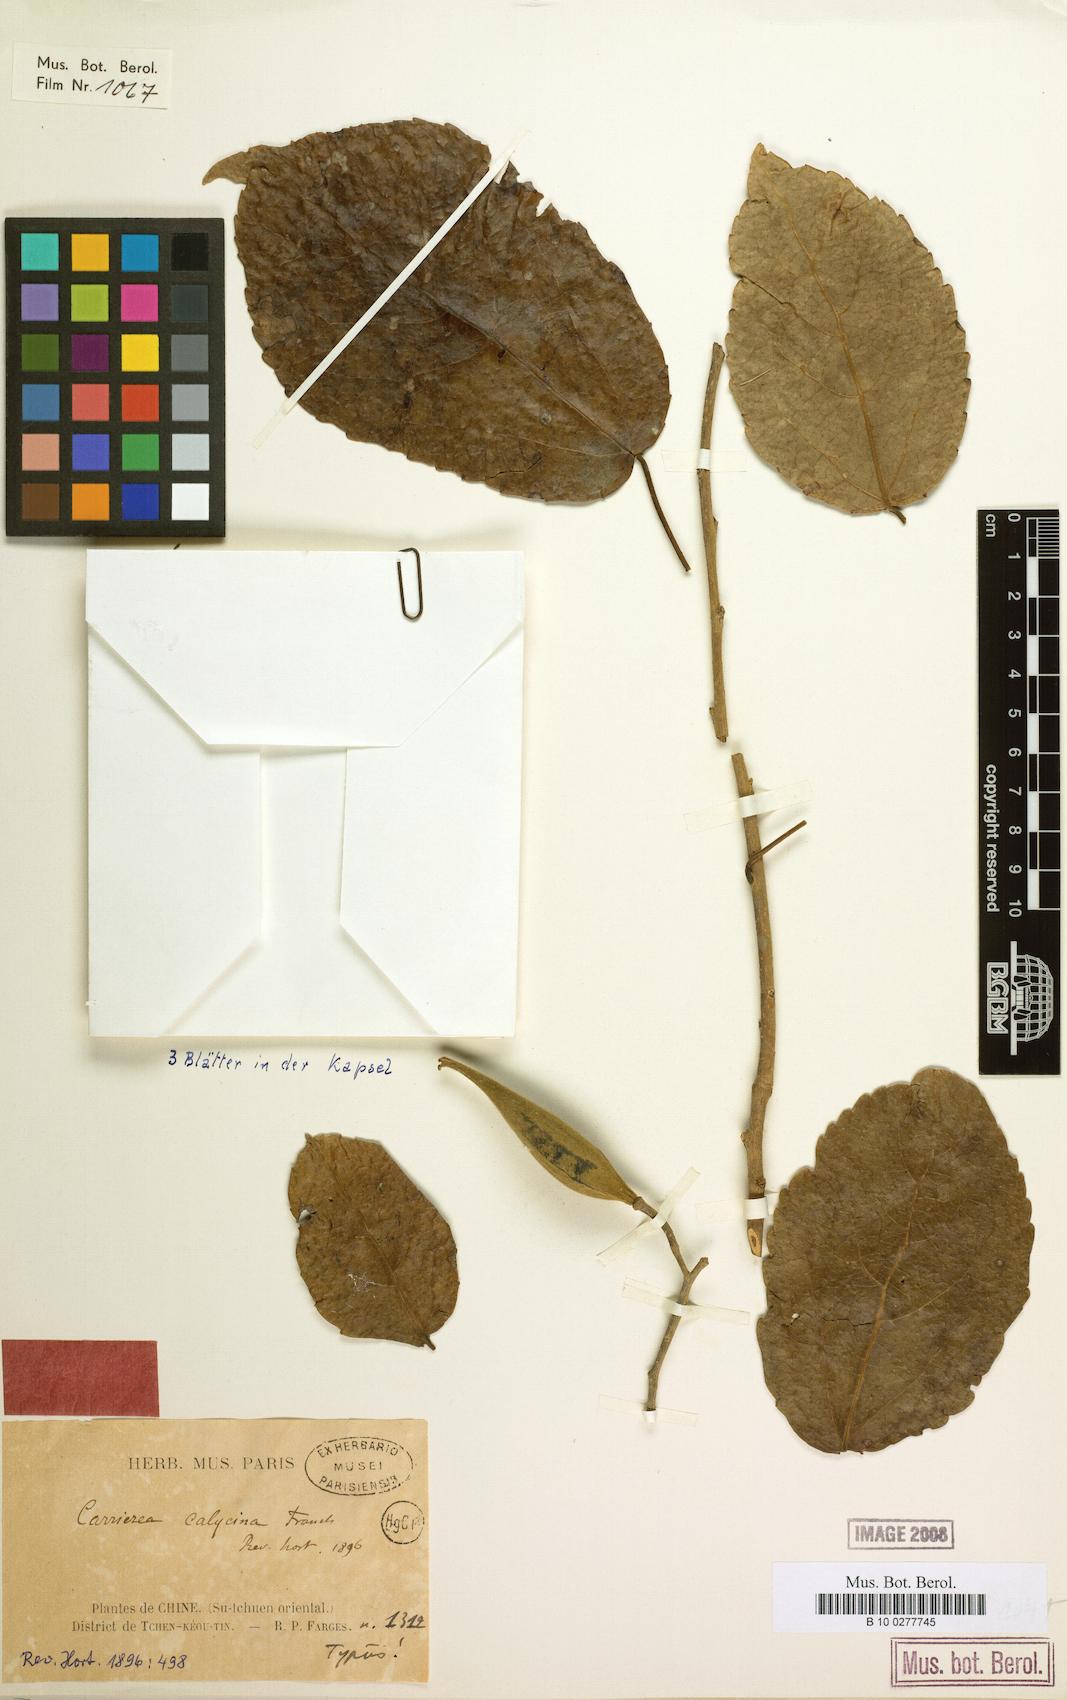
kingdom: Plantae
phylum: Tracheophyta
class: Magnoliopsida
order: Malpighiales
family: Salicaceae
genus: Carrierea
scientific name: Carrierea calycina
